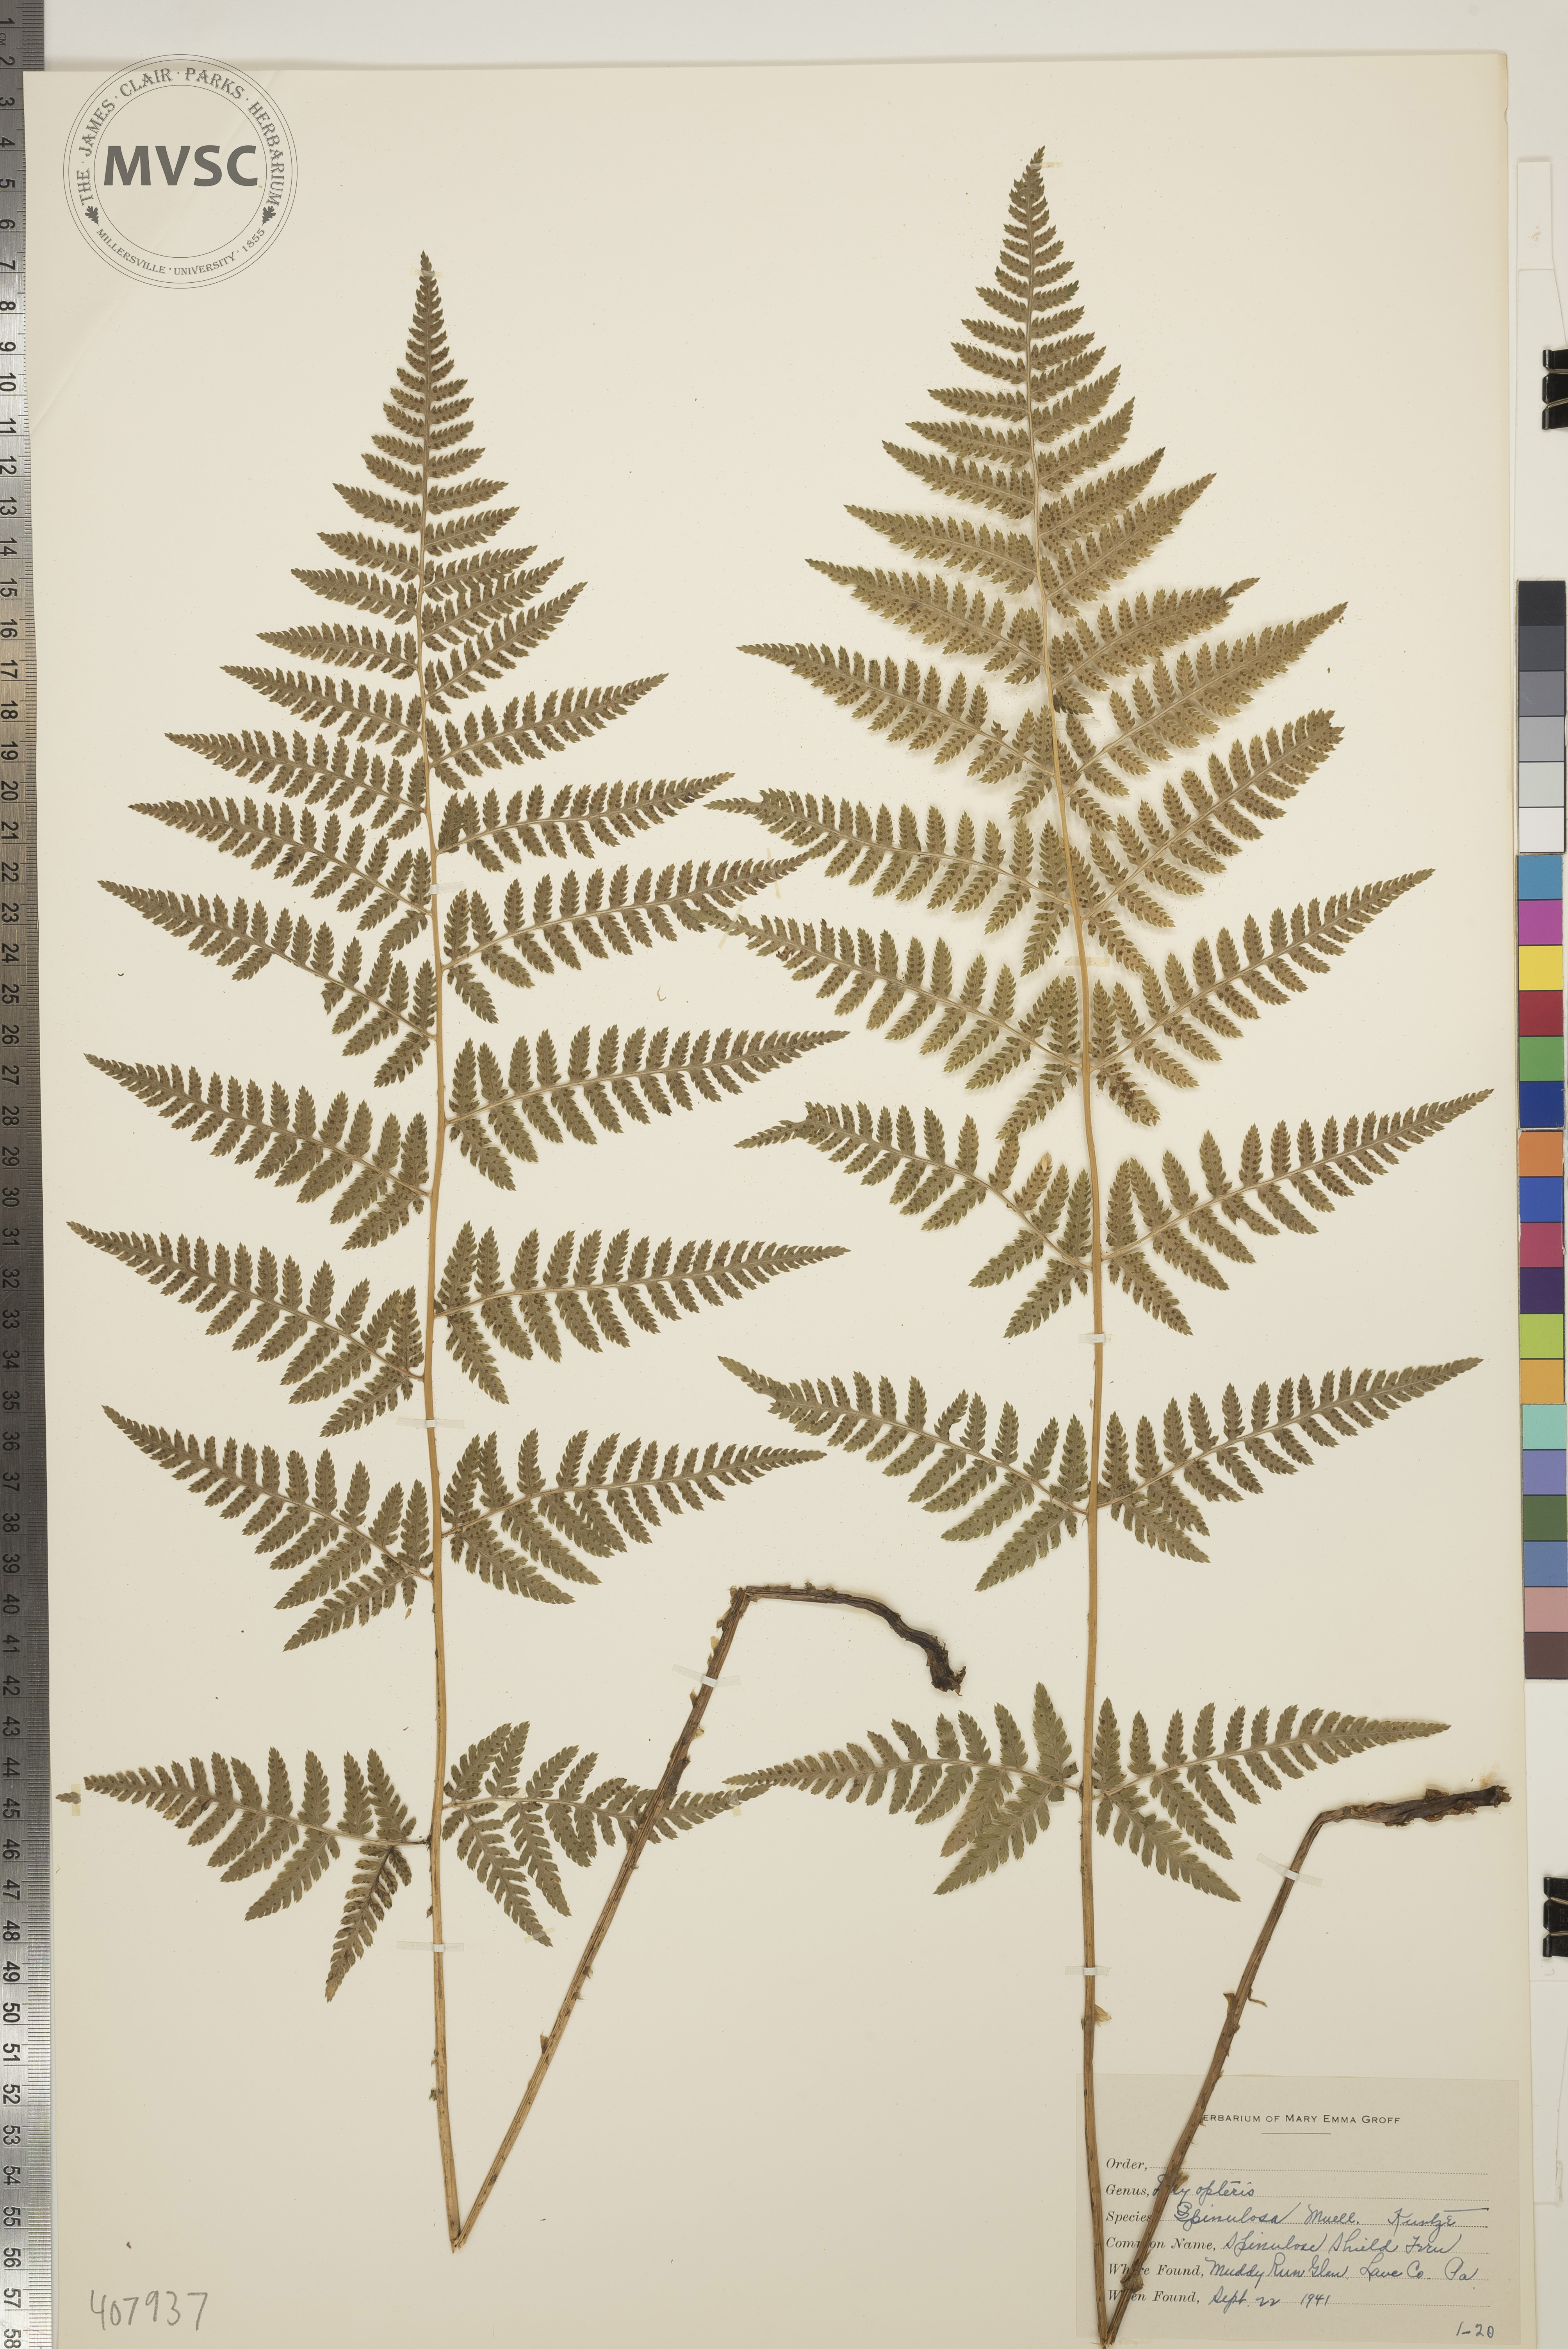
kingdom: Plantae
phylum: Tracheophyta
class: Polypodiopsida
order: Polypodiales
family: Dryopteridaceae
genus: Dryopteris
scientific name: Dryopteris carthusiana
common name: Spinulose Shield Fern
